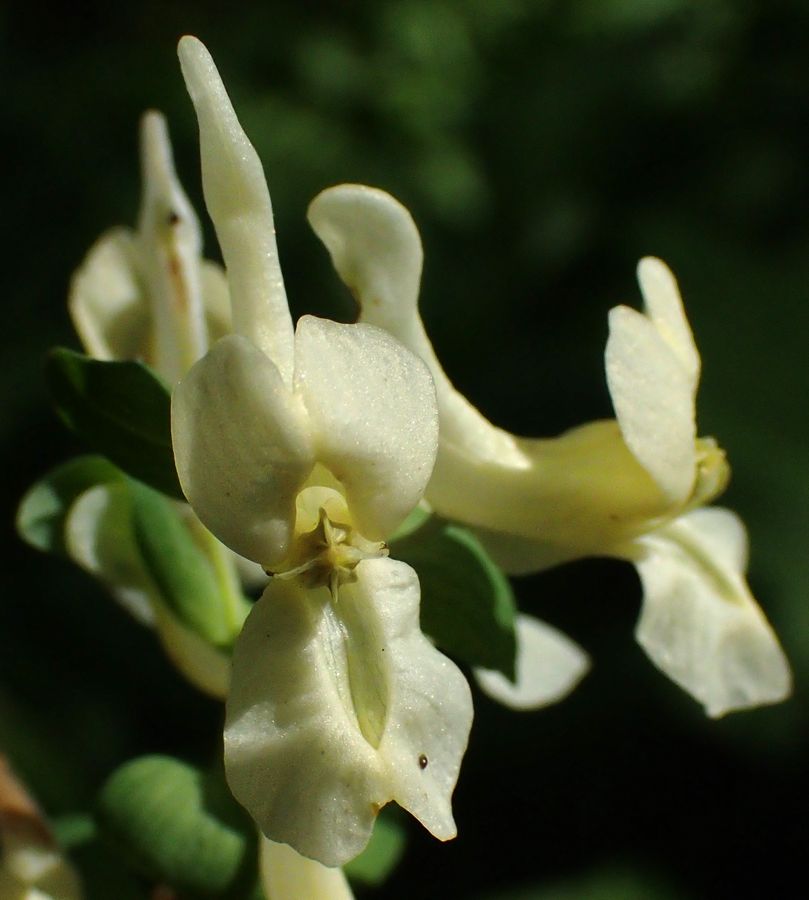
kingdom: Plantae
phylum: Tracheophyta
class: Magnoliopsida
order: Ranunculales
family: Papaveraceae
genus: Corydalis
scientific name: Corydalis cava
